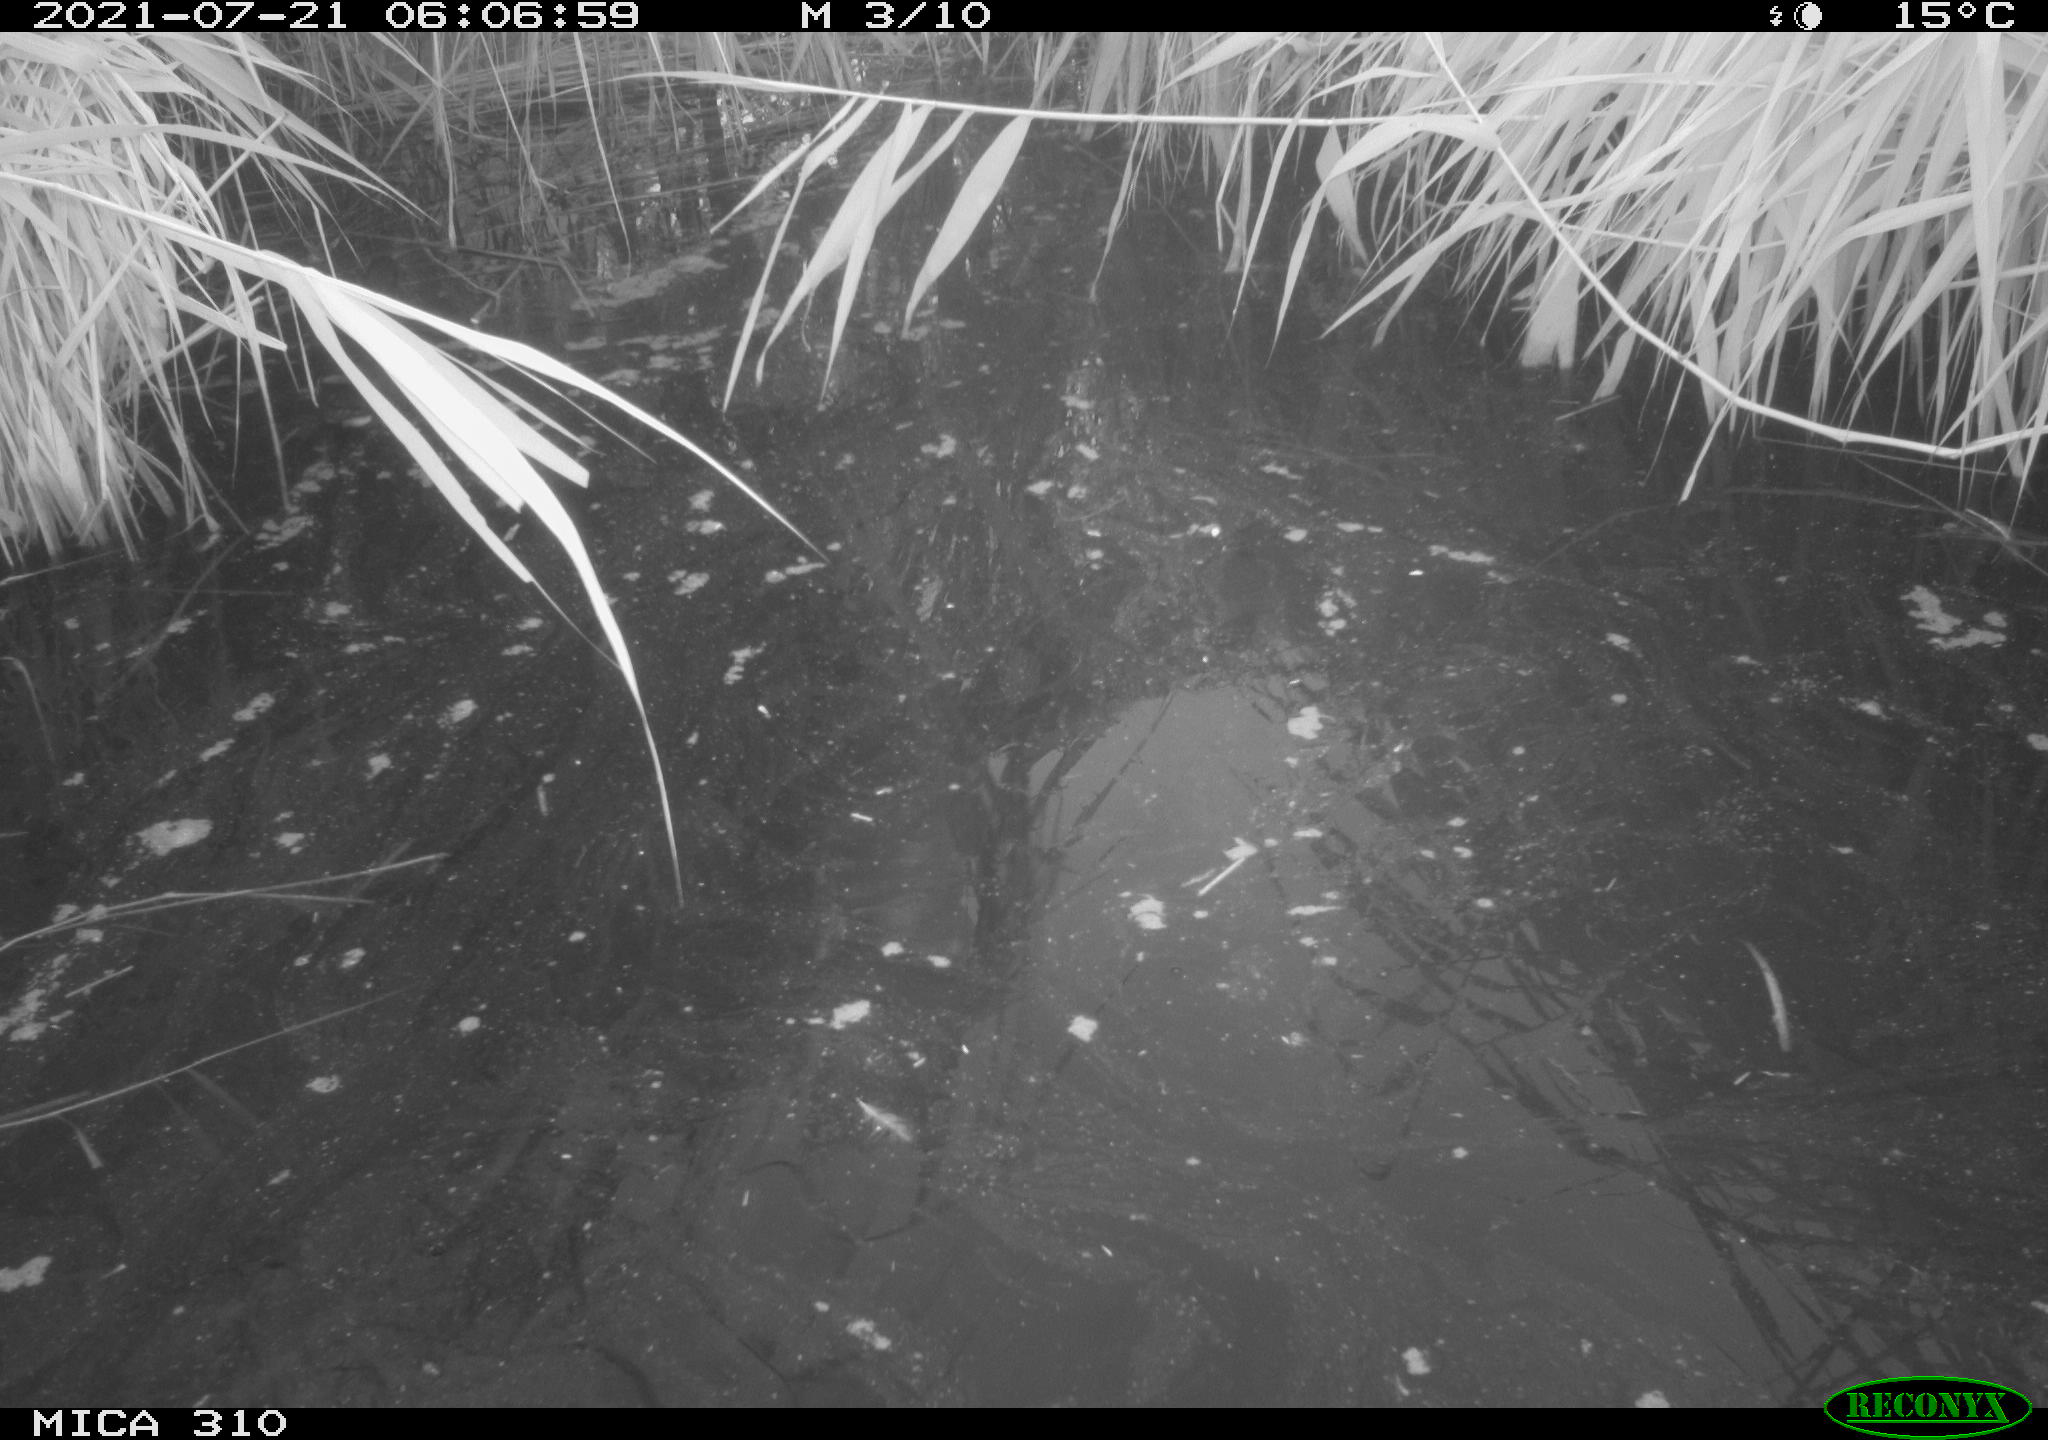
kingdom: Animalia
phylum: Chordata
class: Aves
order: Gruiformes
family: Rallidae
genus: Gallinula
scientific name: Gallinula chloropus
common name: Common moorhen
